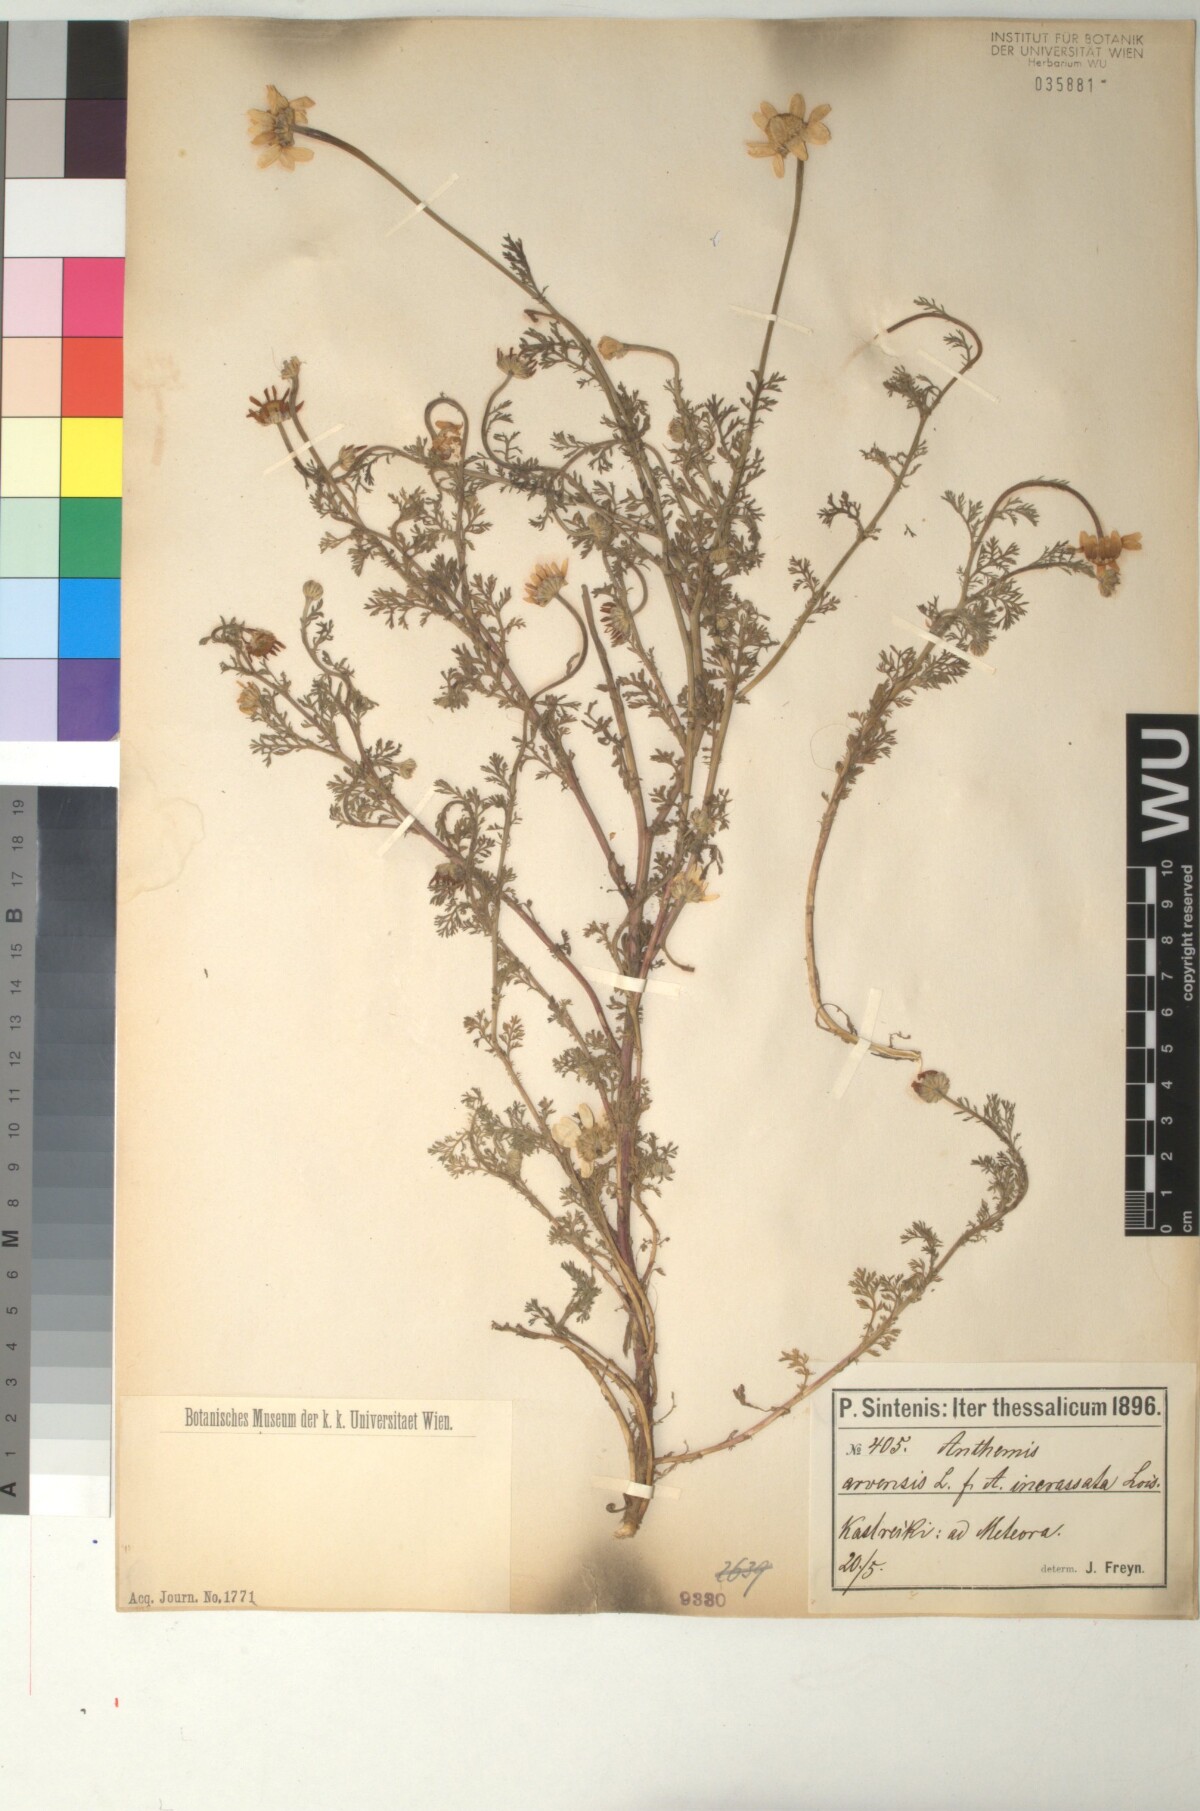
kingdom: Plantae
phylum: Tracheophyta
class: Magnoliopsida
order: Asterales
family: Asteraceae
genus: Anthemis
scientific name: Anthemis arvensis
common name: Corn chamomile
